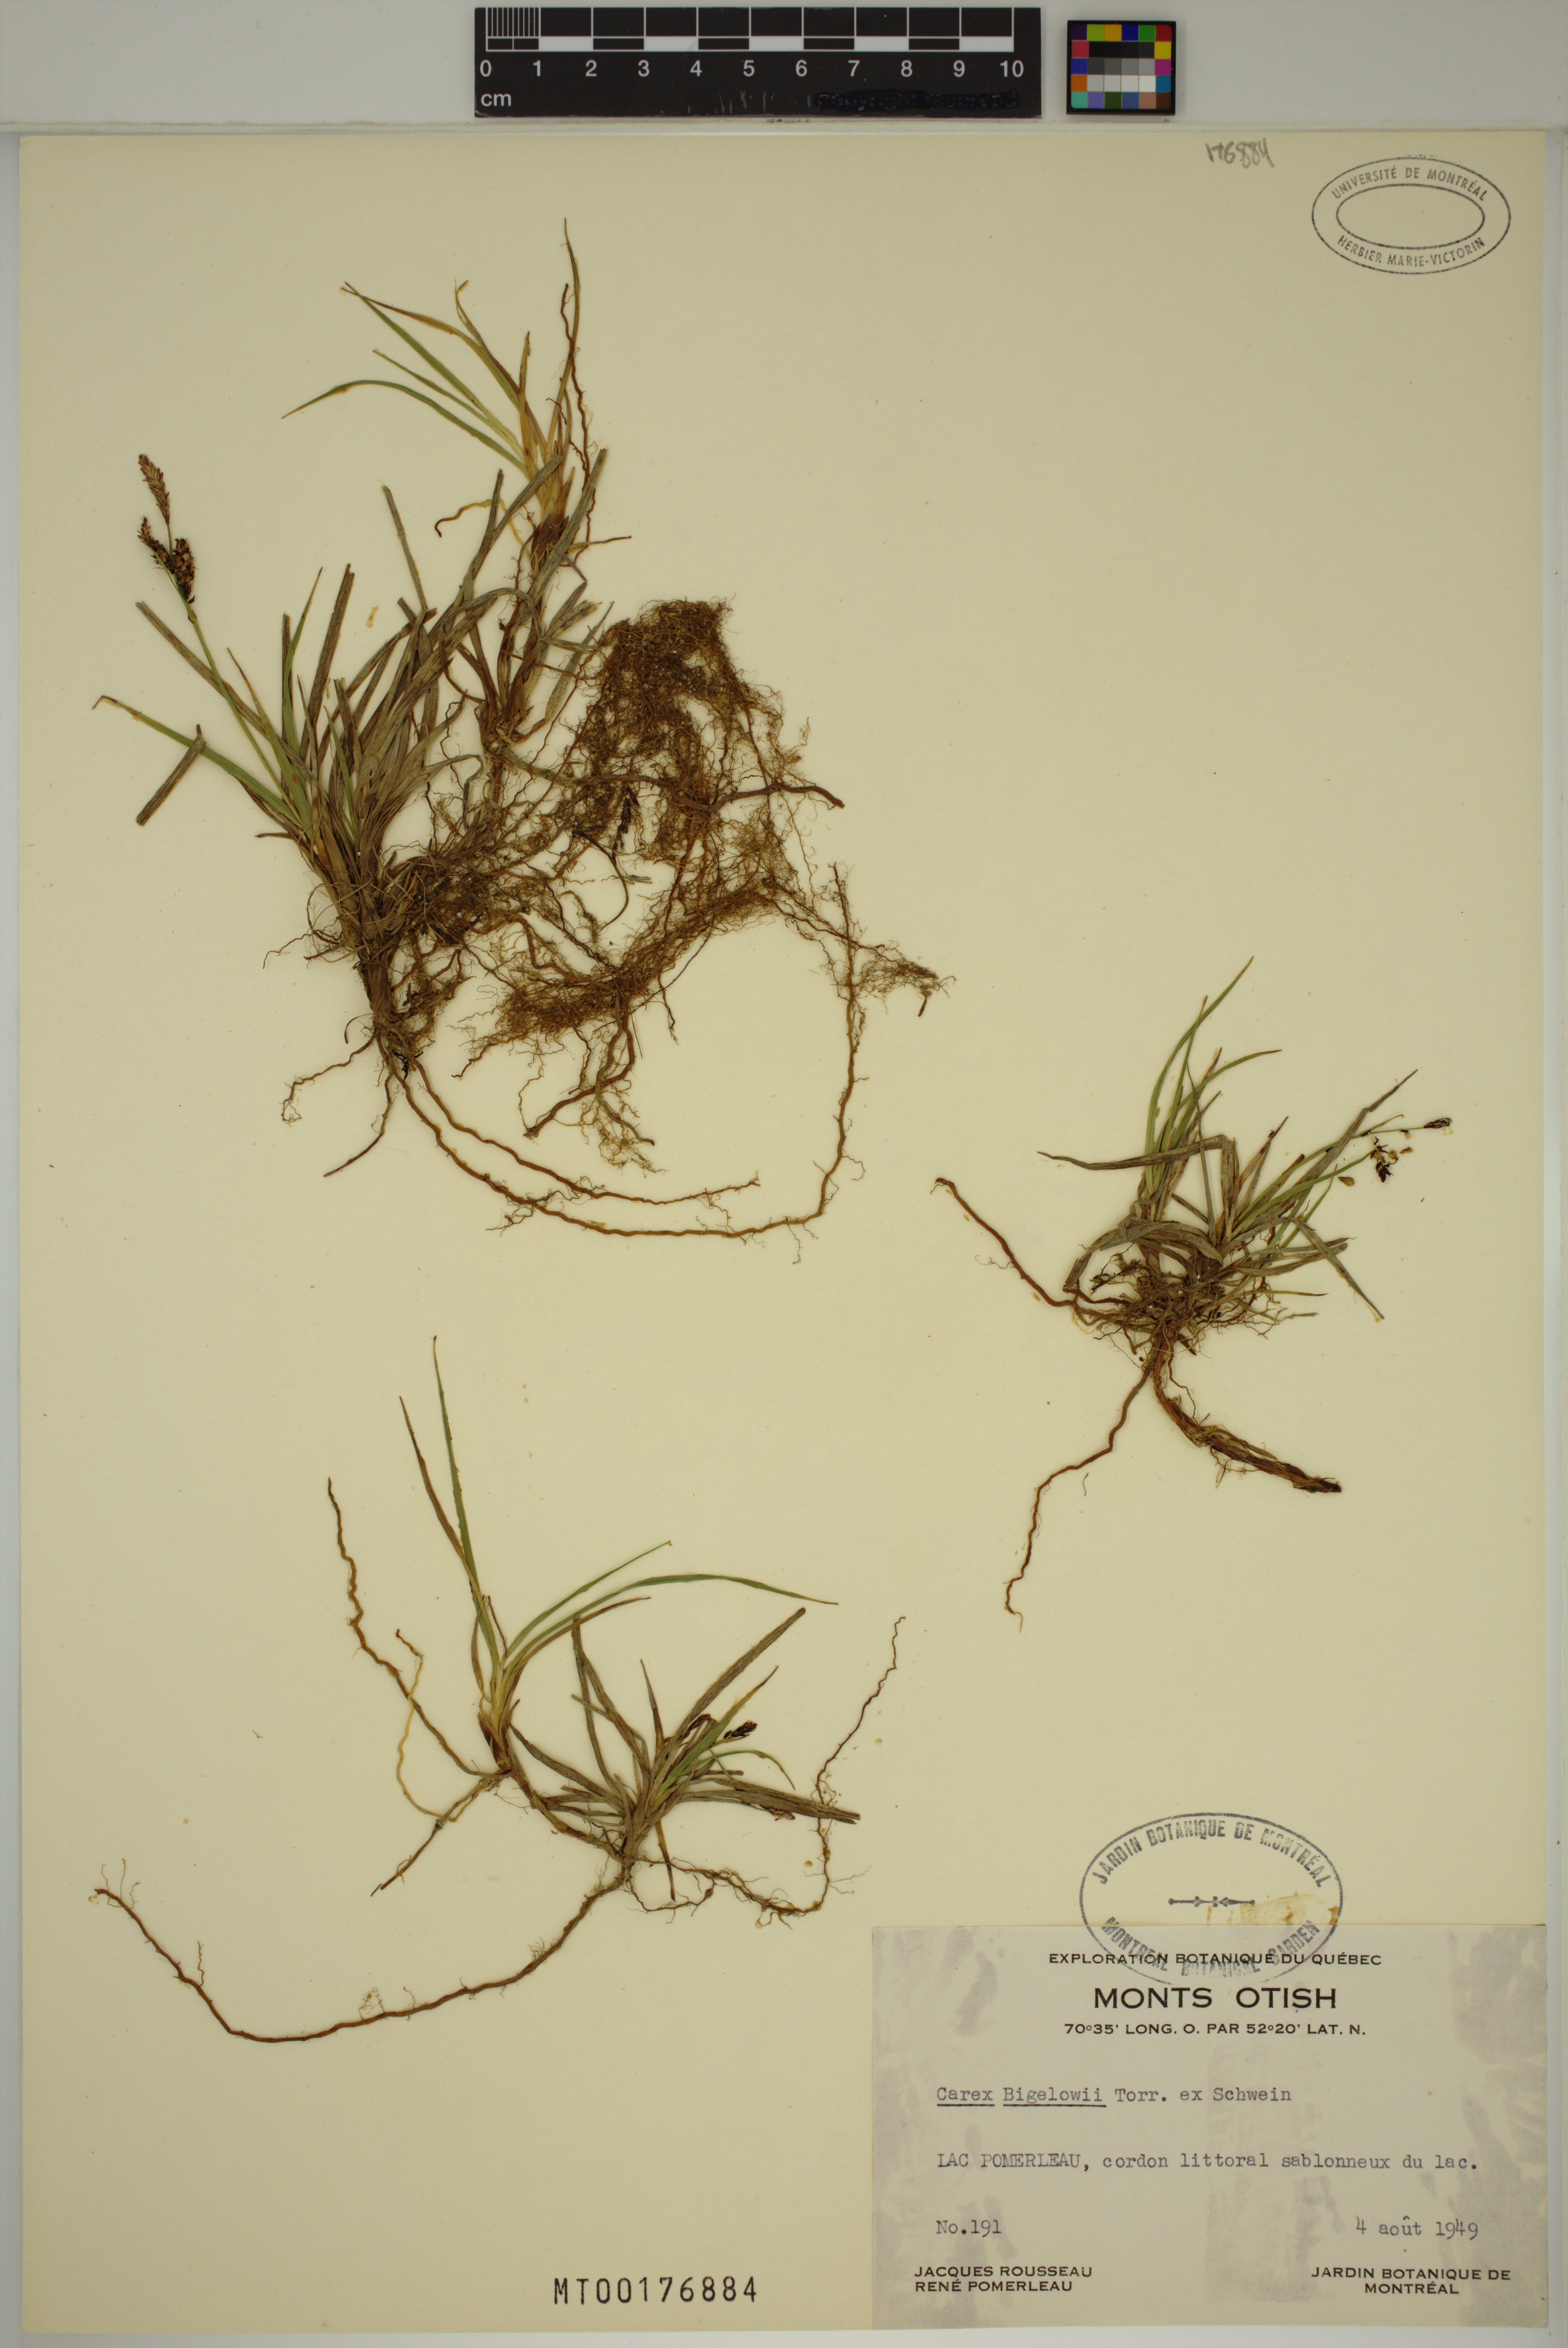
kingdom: Plantae
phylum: Tracheophyta
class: Liliopsida
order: Poales
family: Cyperaceae
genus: Carex
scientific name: Carex bigelowii
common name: Stiff sedge
